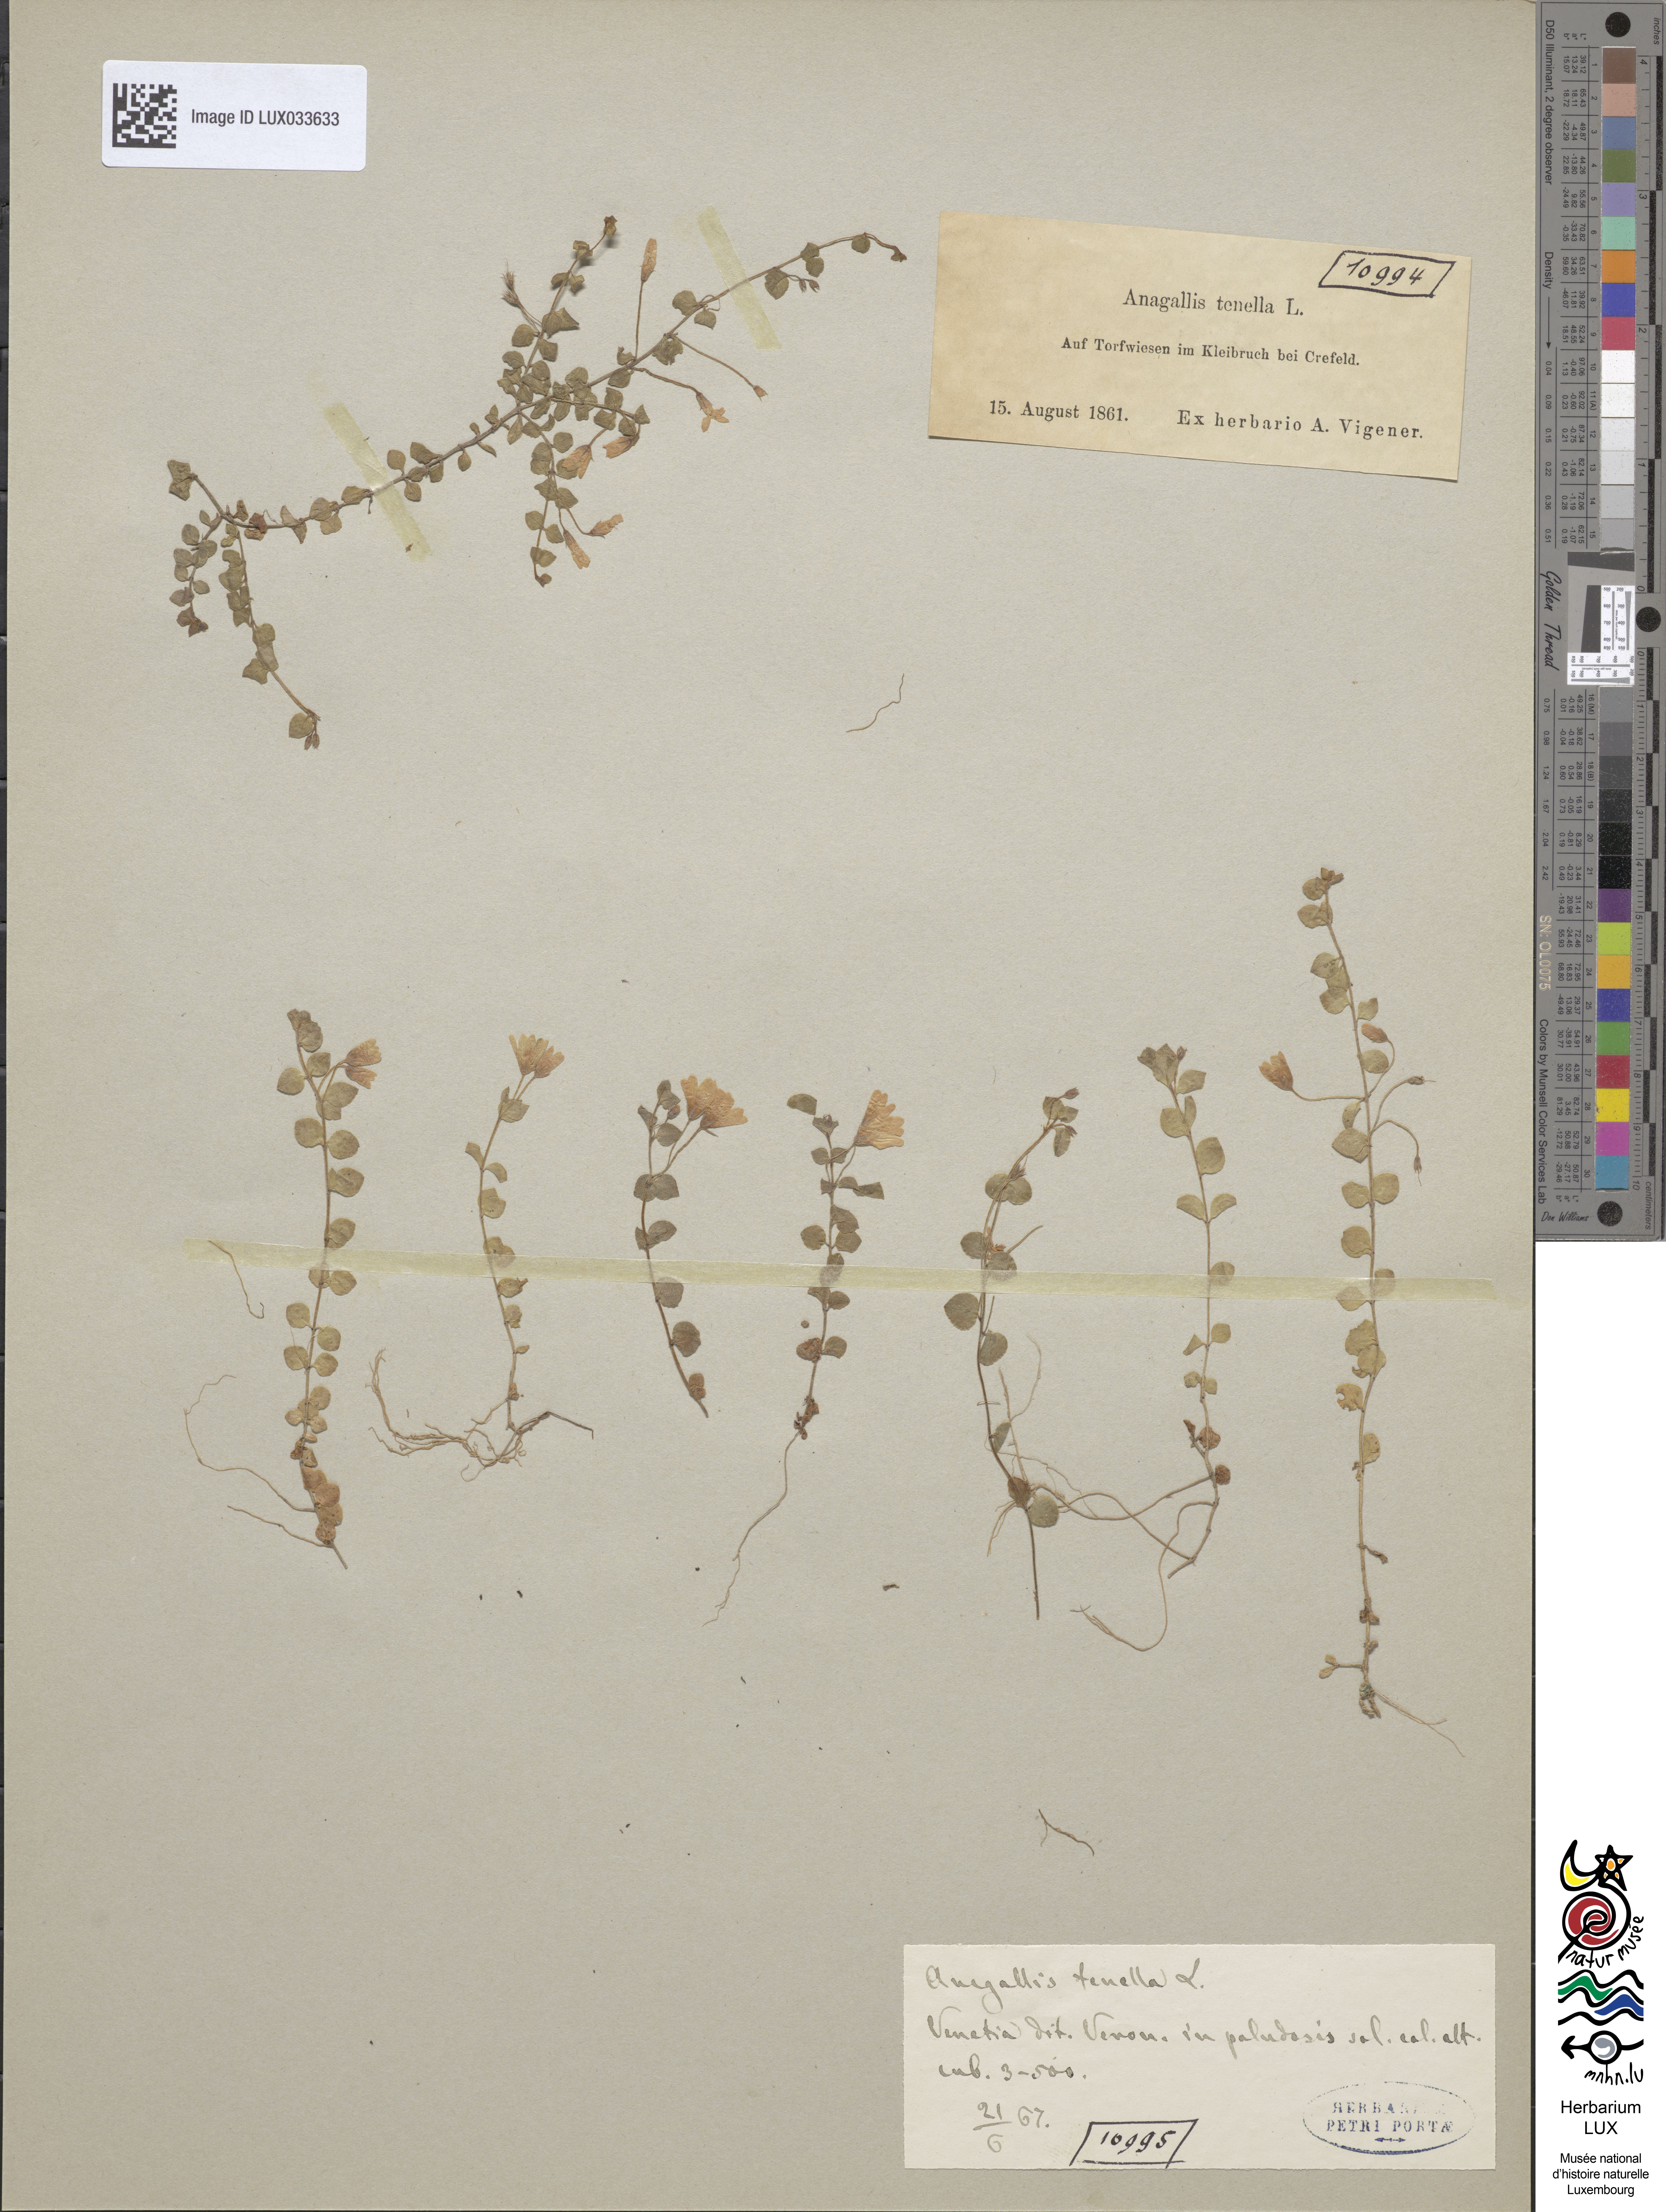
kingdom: Plantae
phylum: Tracheophyta
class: Magnoliopsida
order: Ericales
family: Primulaceae
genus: Lysimachia
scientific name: Lysimachia tenella
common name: European bog pimpernel
